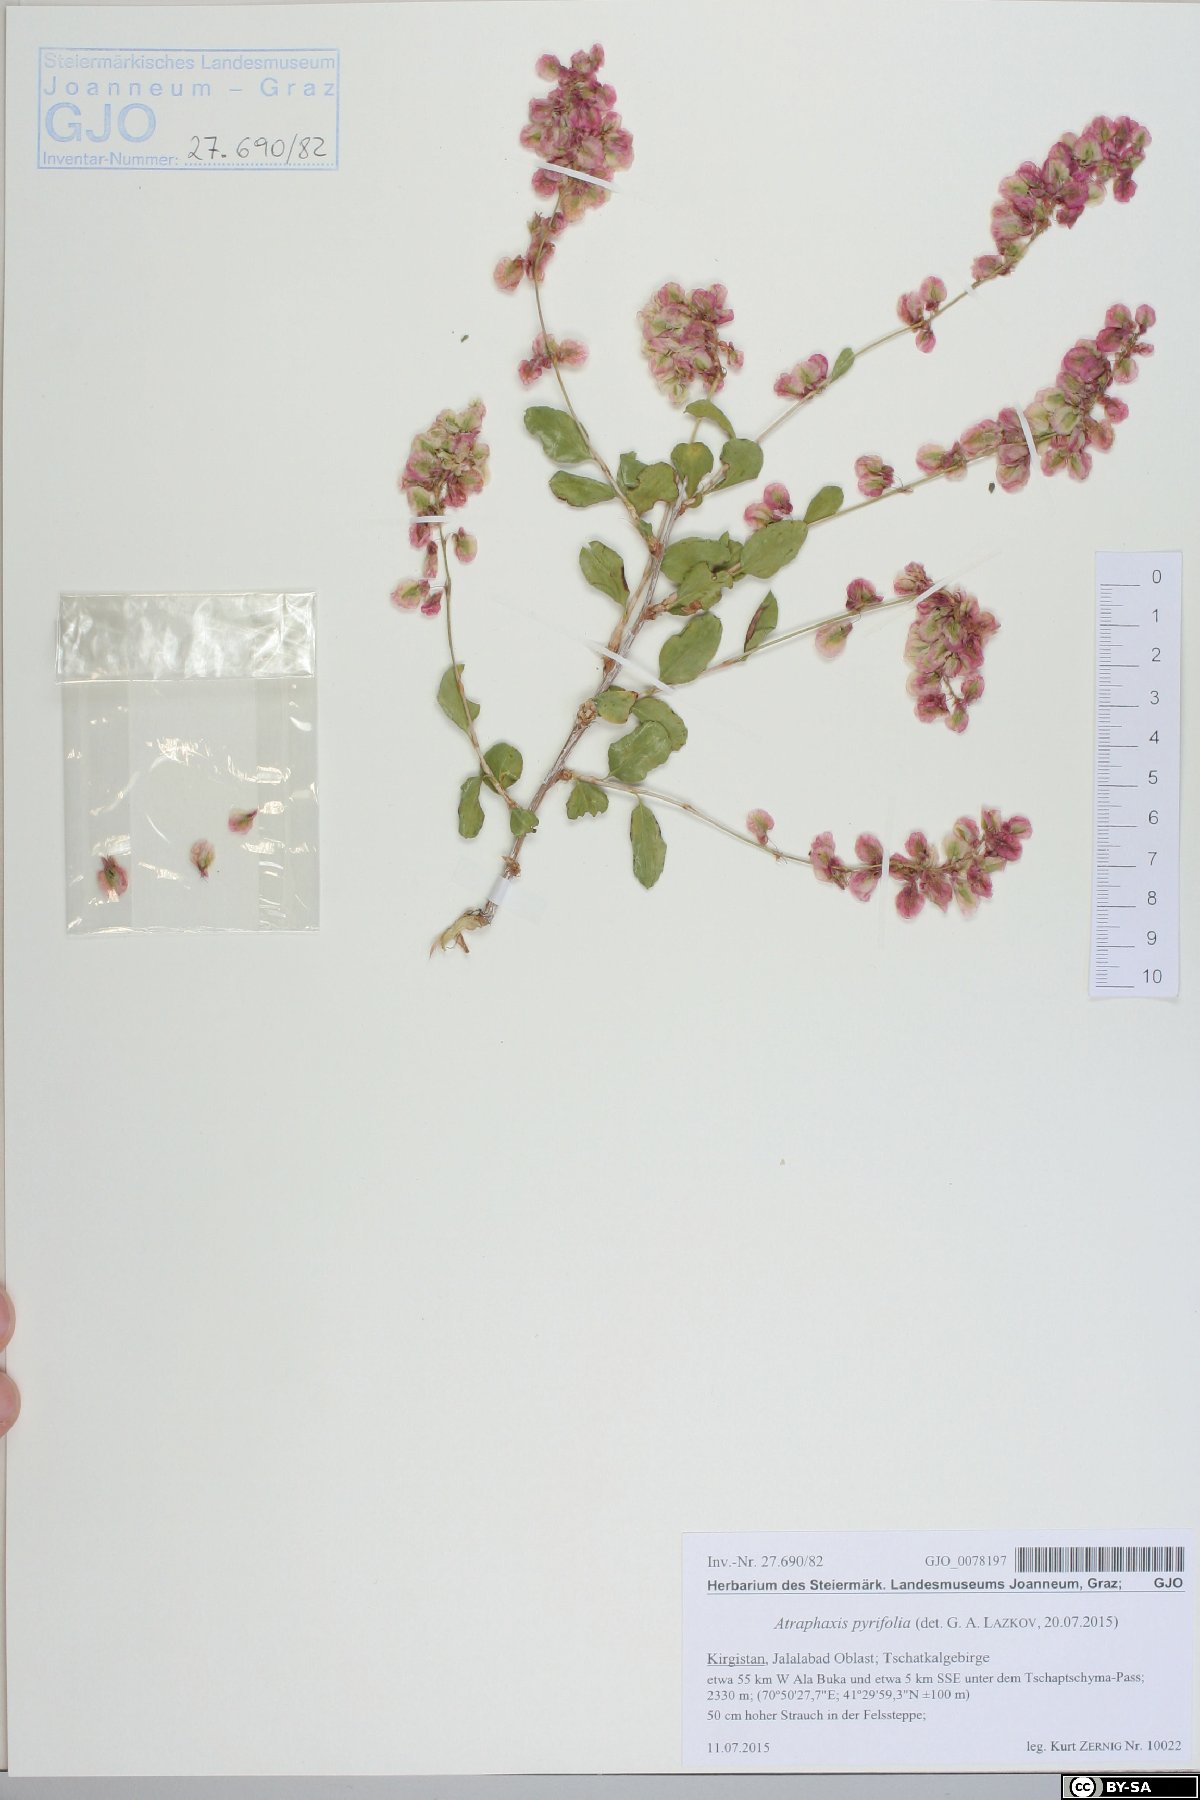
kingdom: Plantae
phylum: Tracheophyta
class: Magnoliopsida
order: Caryophyllales
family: Polygonaceae
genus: Atraphaxis
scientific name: Atraphaxis pyrifolia
